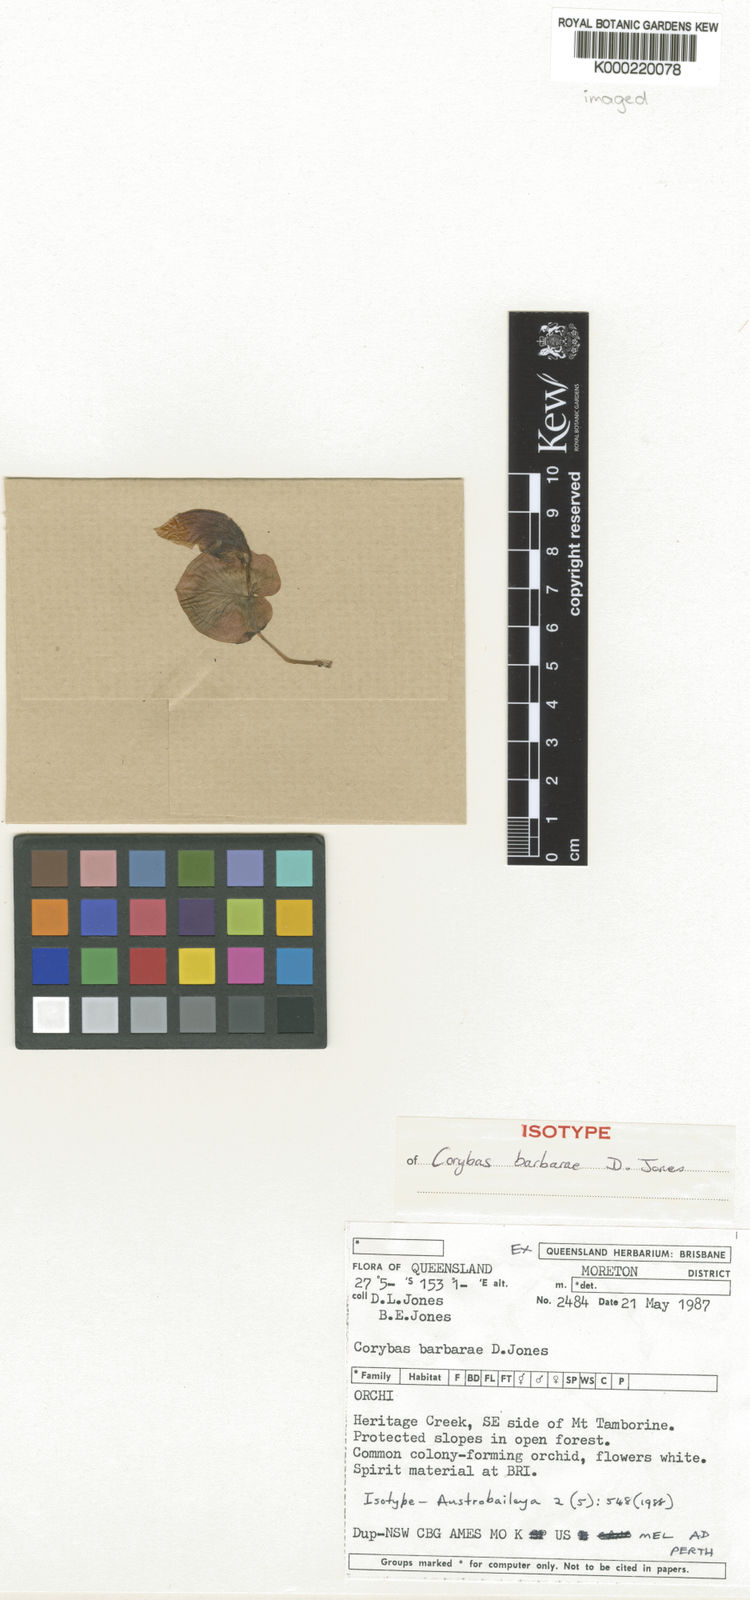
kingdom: Plantae
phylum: Tracheophyta
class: Liliopsida
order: Asparagales
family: Orchidaceae
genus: Corybas
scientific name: Corybas barbarae
